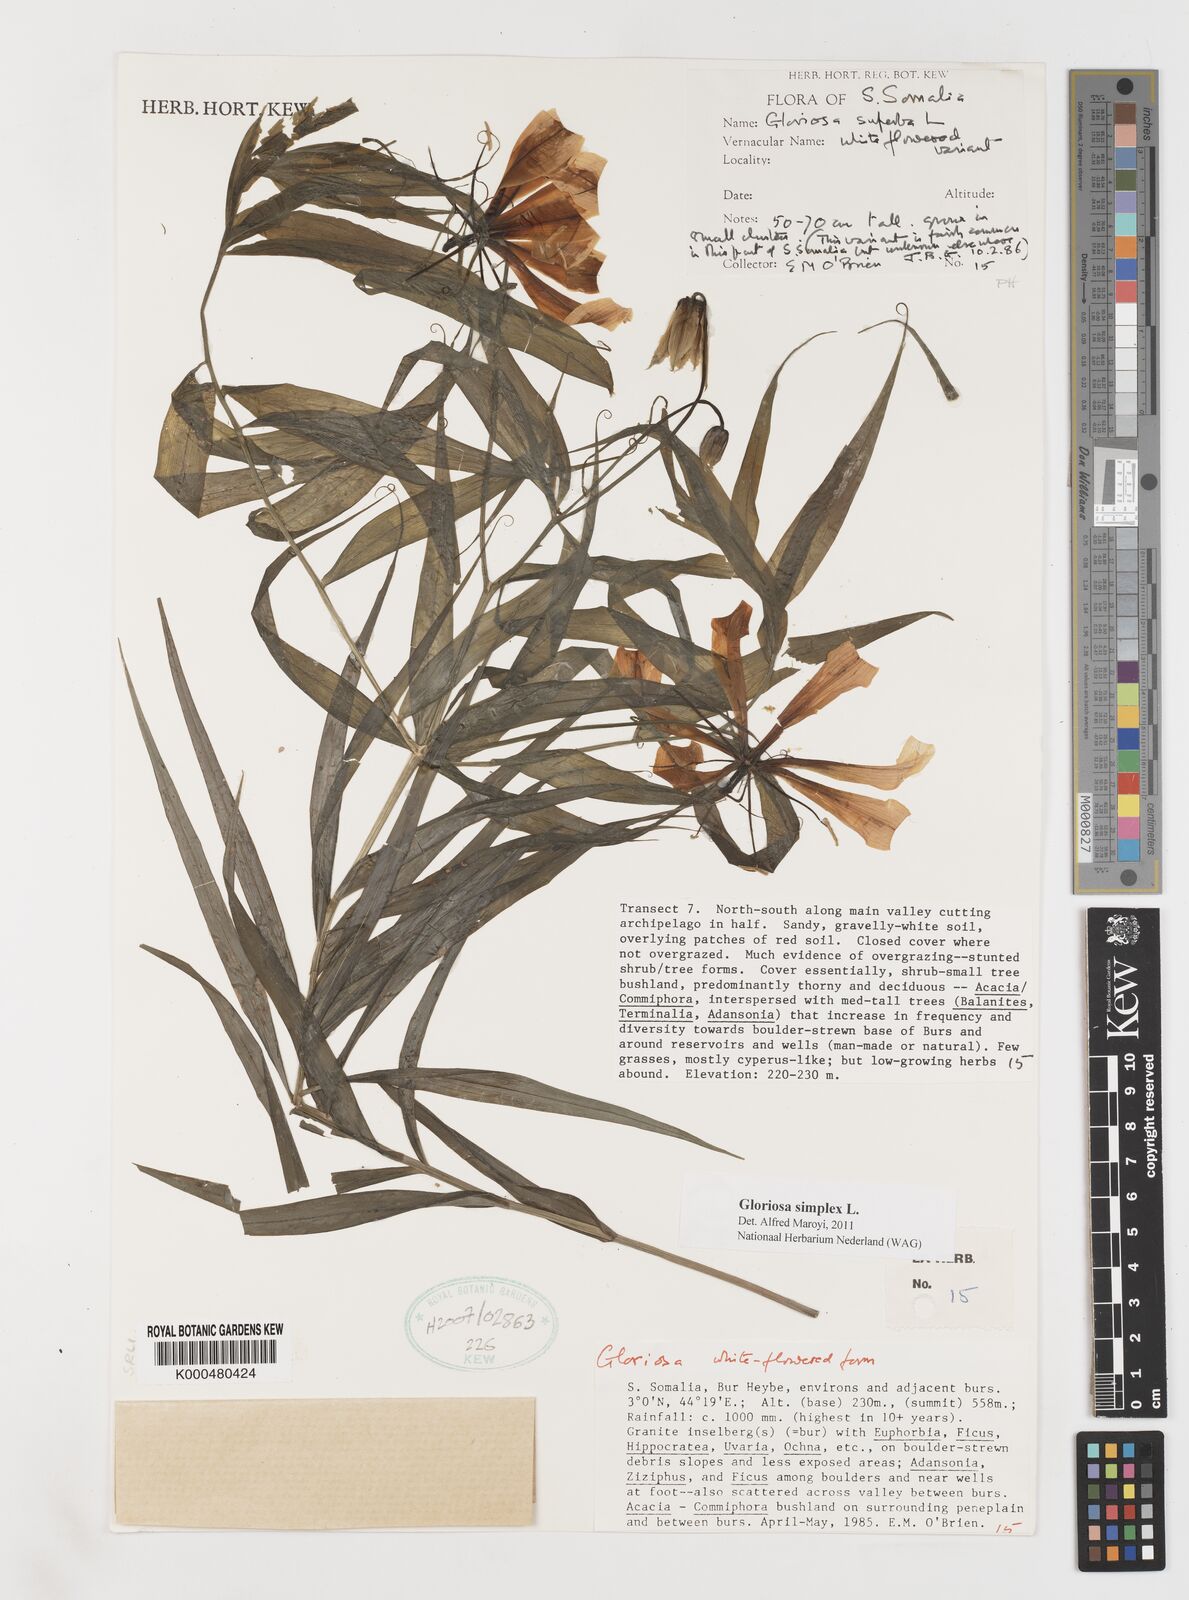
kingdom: Plantae
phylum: Tracheophyta
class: Liliopsida
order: Liliales
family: Colchicaceae
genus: Gloriosa
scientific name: Gloriosa simplex
